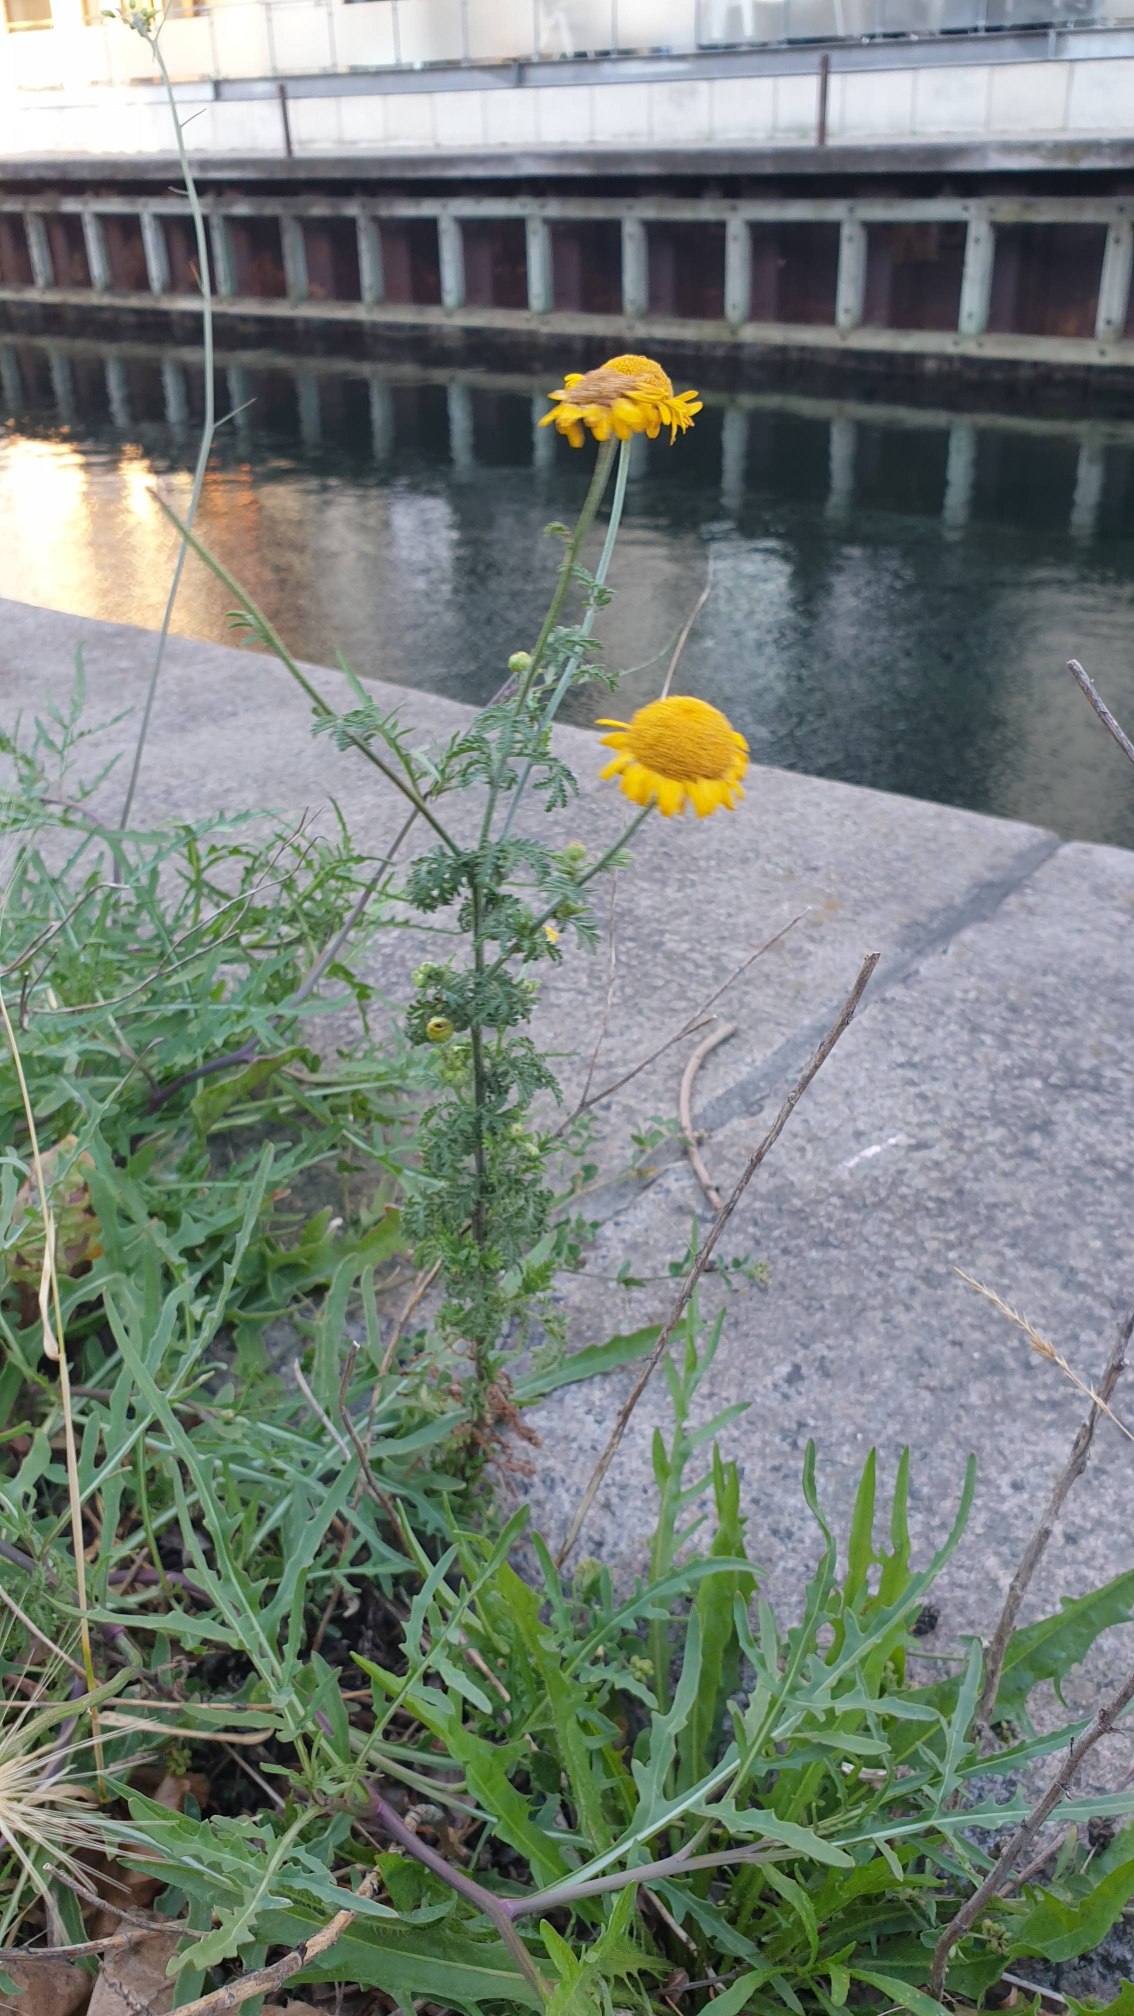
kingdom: Plantae
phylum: Tracheophyta
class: Magnoliopsida
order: Asterales
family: Asteraceae
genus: Cota
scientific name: Cota tinctoria
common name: Farve-gåseurt
